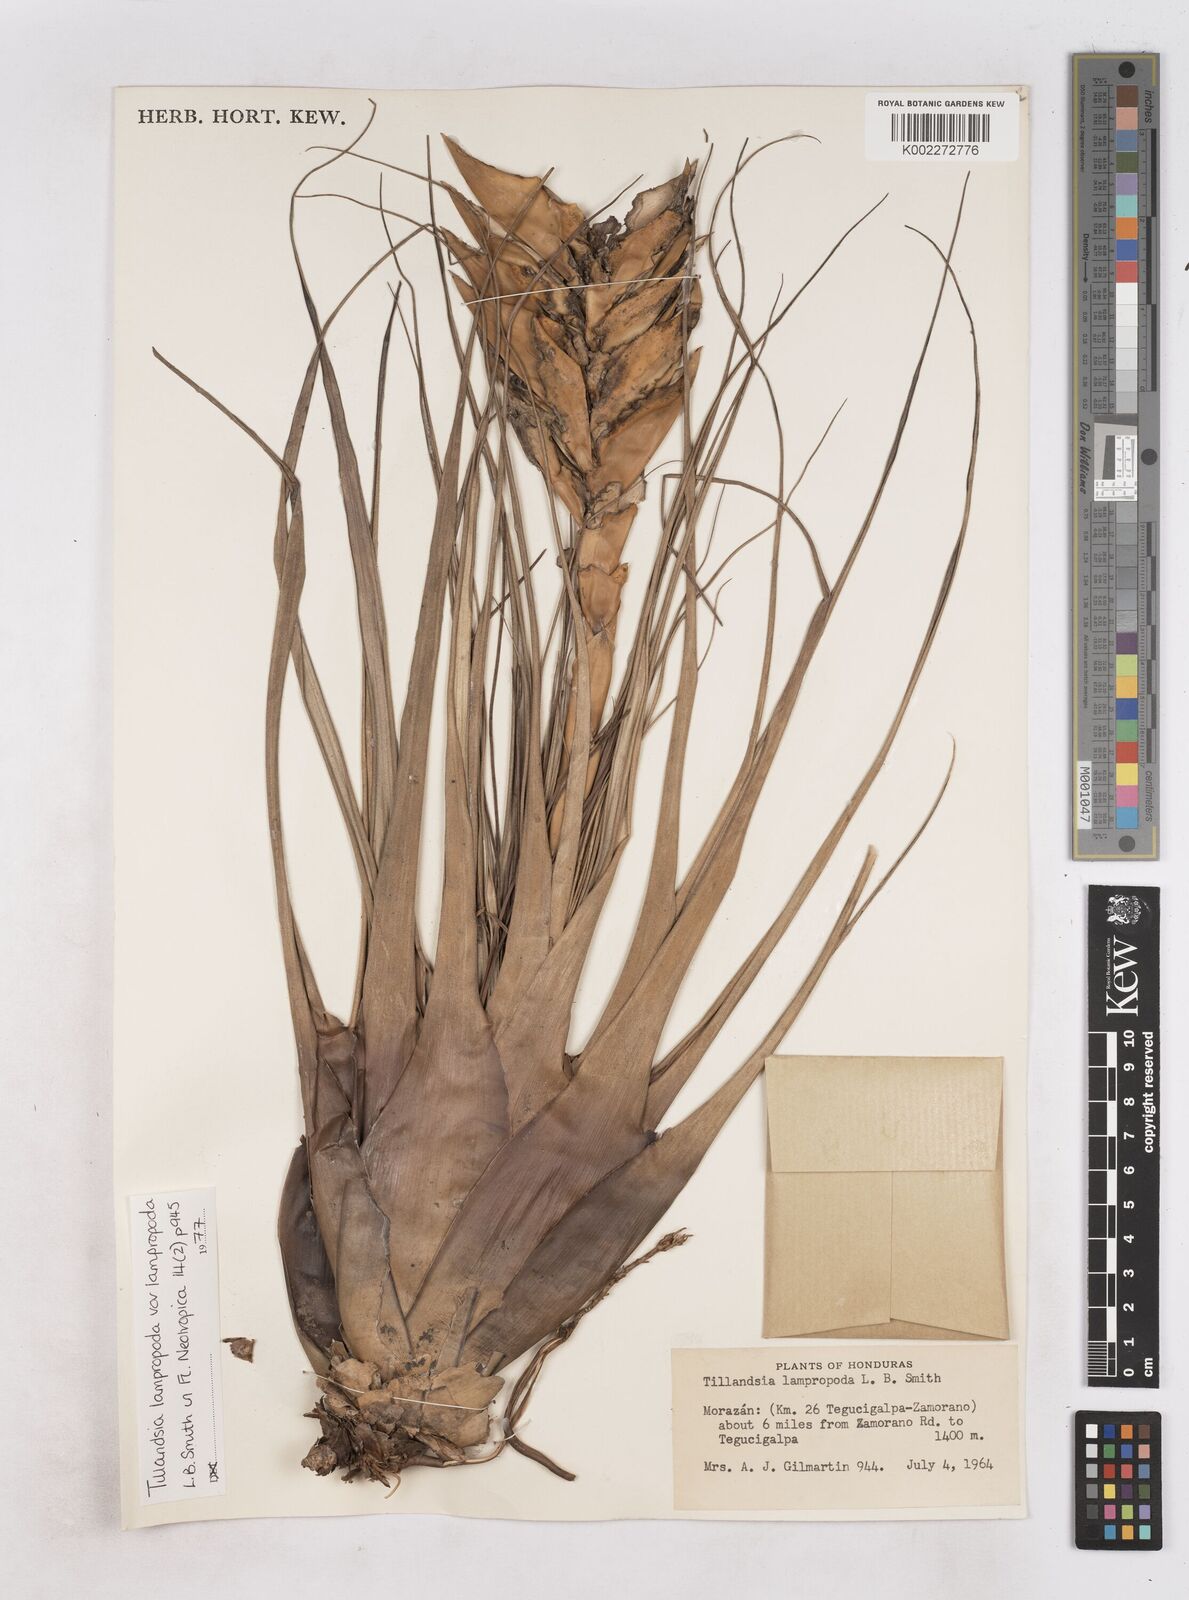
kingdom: Plantae
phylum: Tracheophyta
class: Liliopsida
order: Poales
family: Bromeliaceae
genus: Tillandsia
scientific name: Tillandsia lampropoda
